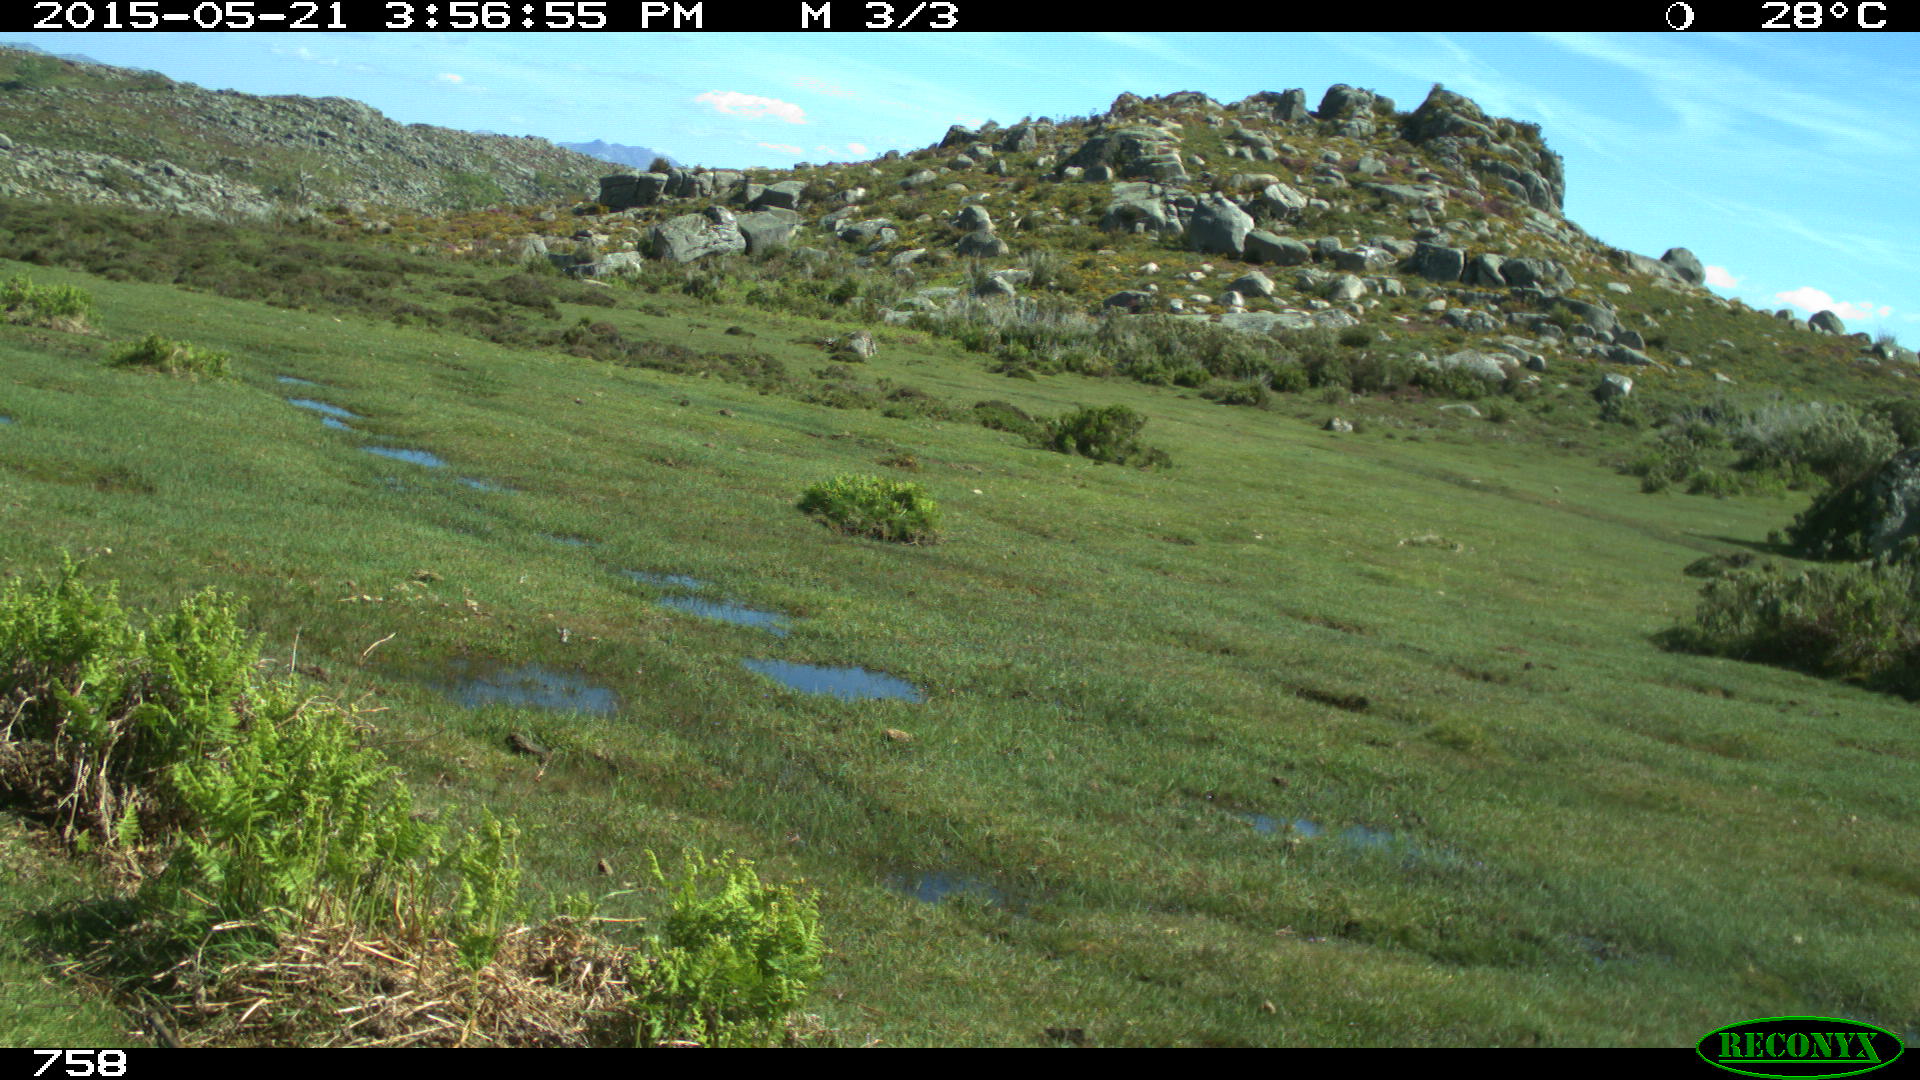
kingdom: Animalia
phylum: Chordata
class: Mammalia
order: Perissodactyla
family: Equidae
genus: Equus
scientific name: Equus caballus
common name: Horse
